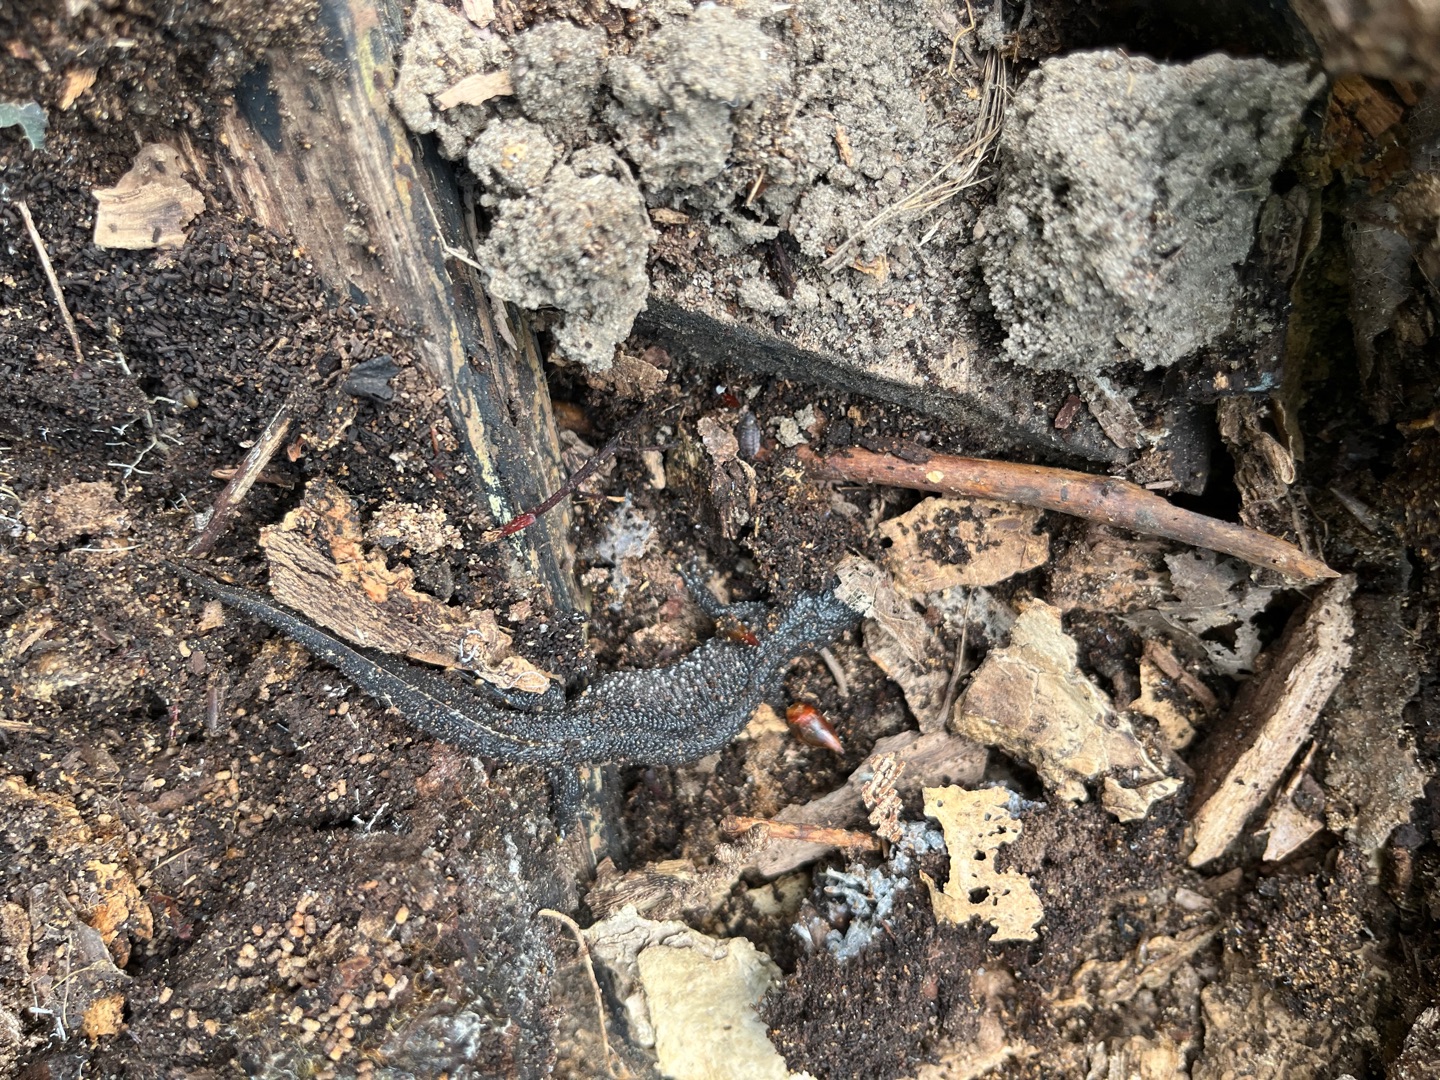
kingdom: Animalia
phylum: Chordata
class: Amphibia
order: Caudata
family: Salamandridae
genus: Triturus
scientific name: Triturus cristatus
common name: Stor vandsalamander
